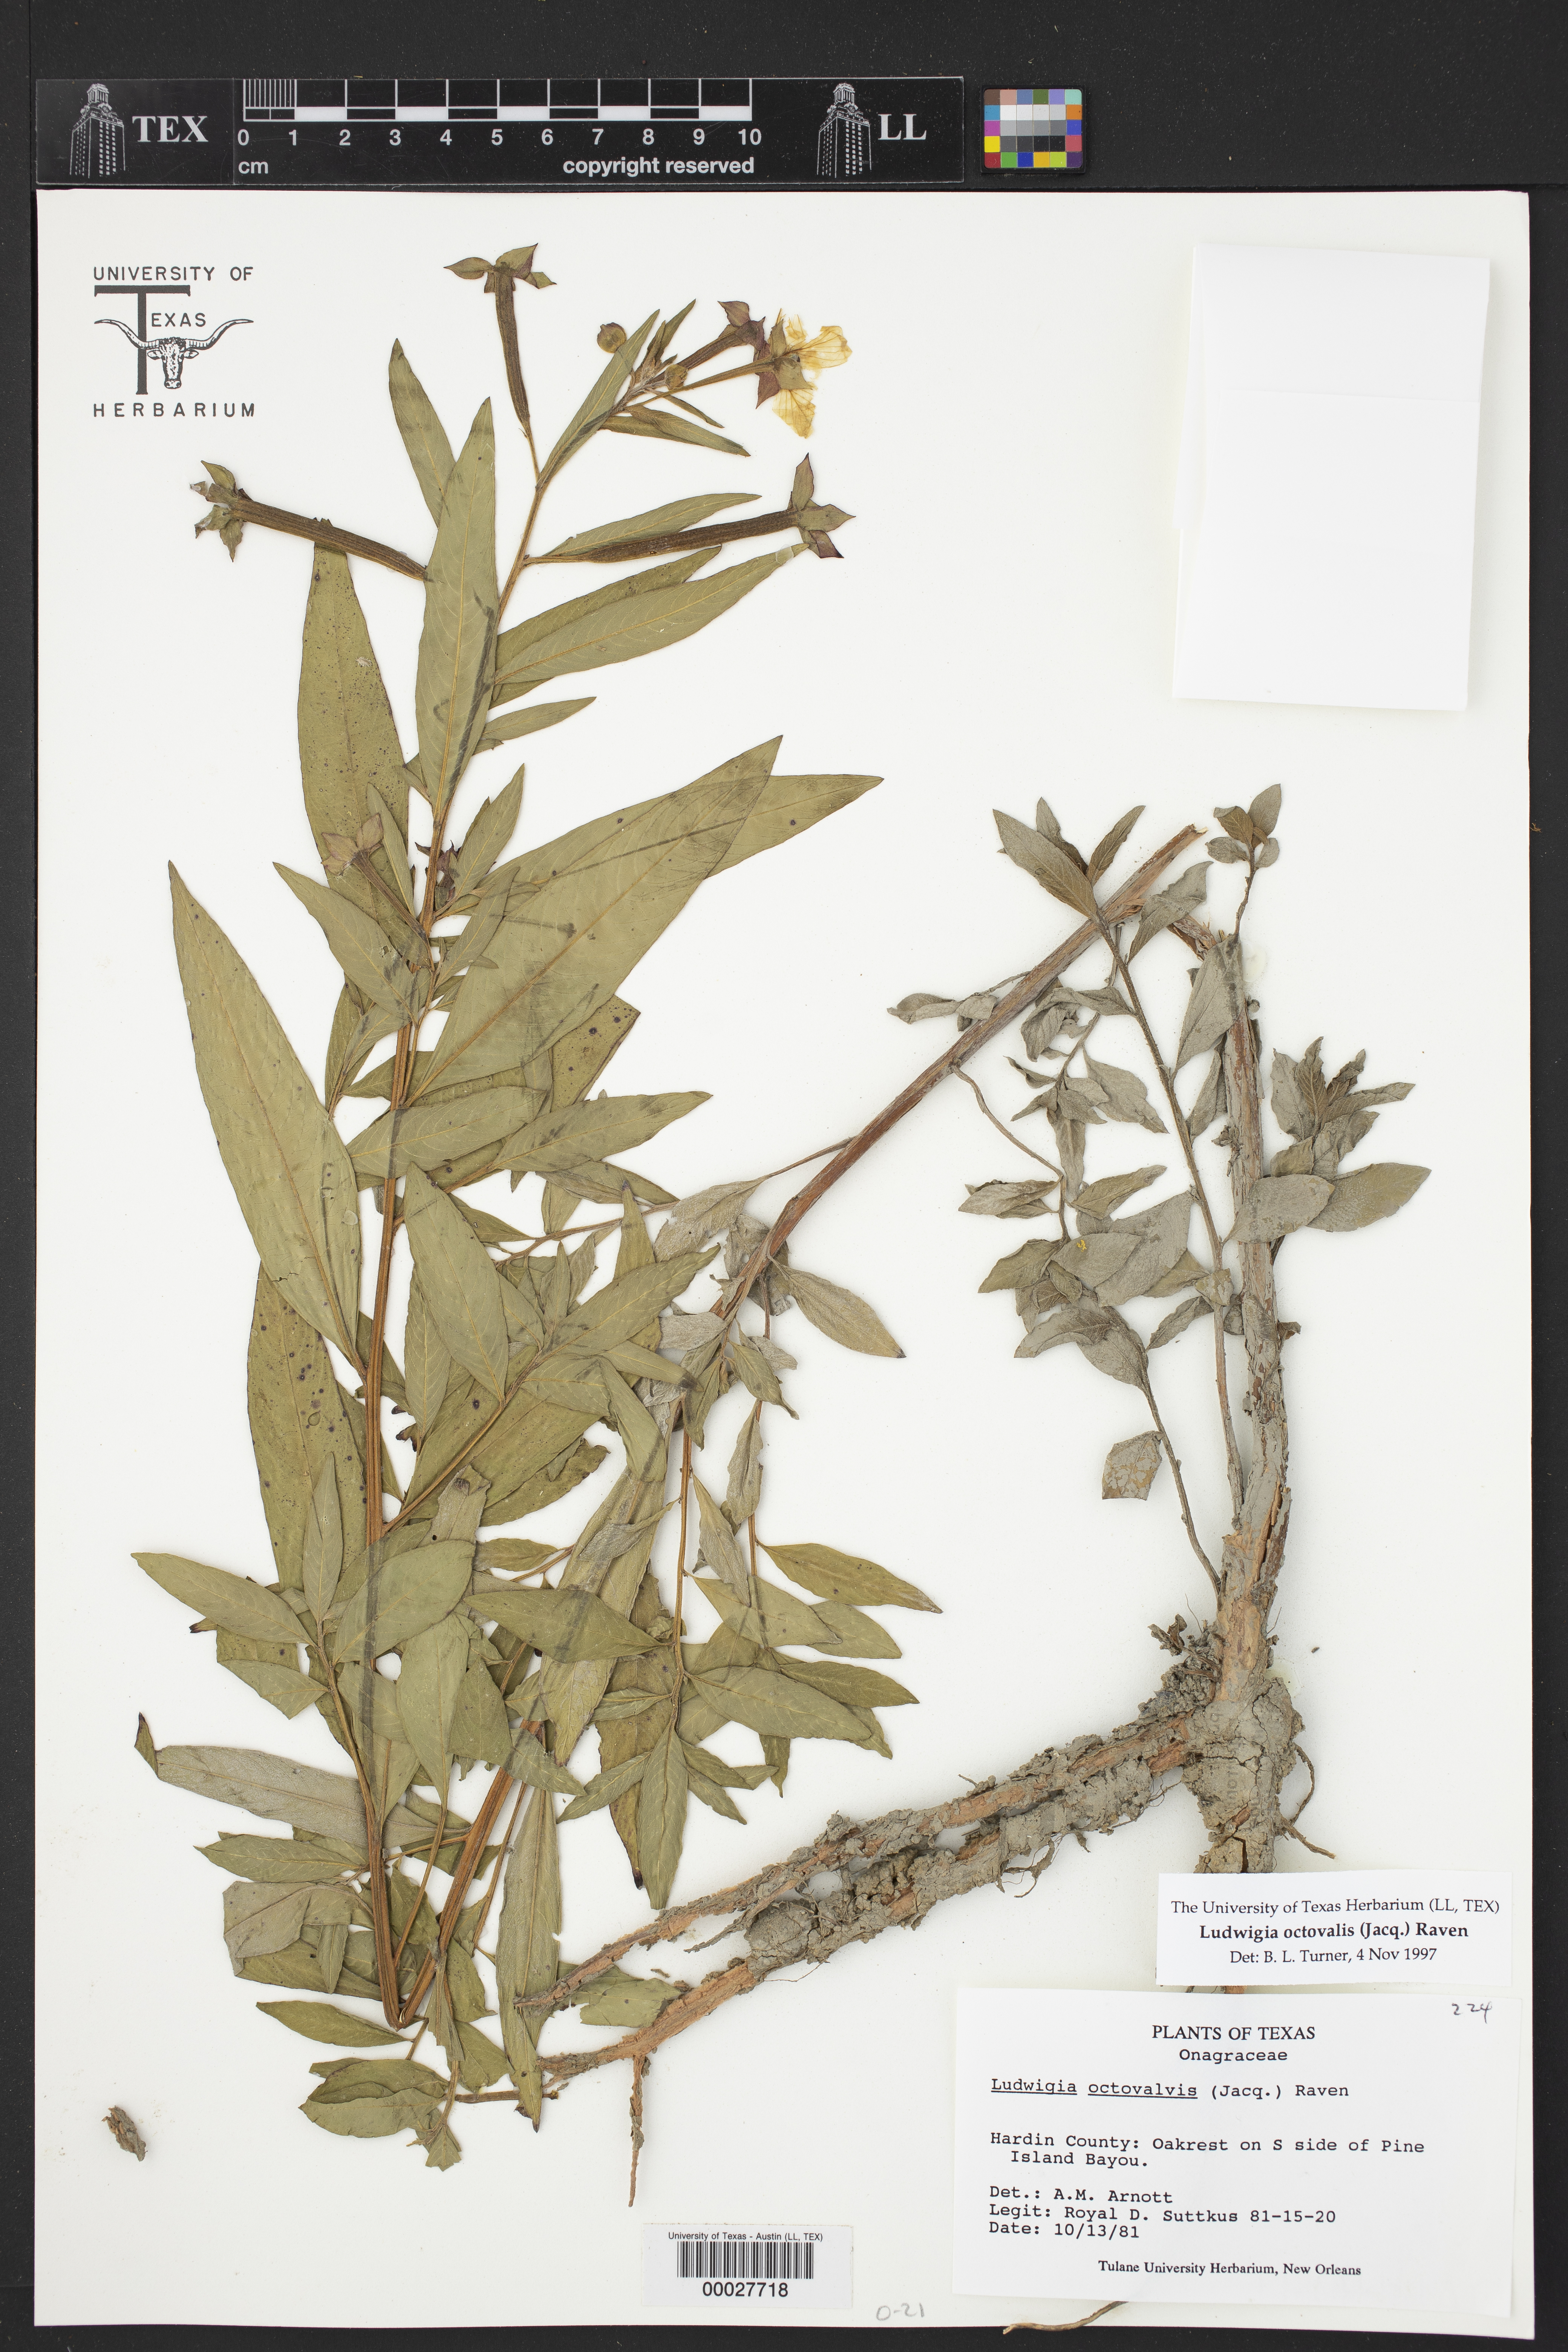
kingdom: Plantae
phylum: Tracheophyta
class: Magnoliopsida
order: Myrtales
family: Onagraceae
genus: Ludwigia
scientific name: Ludwigia octovalvis
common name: Water-primrose
